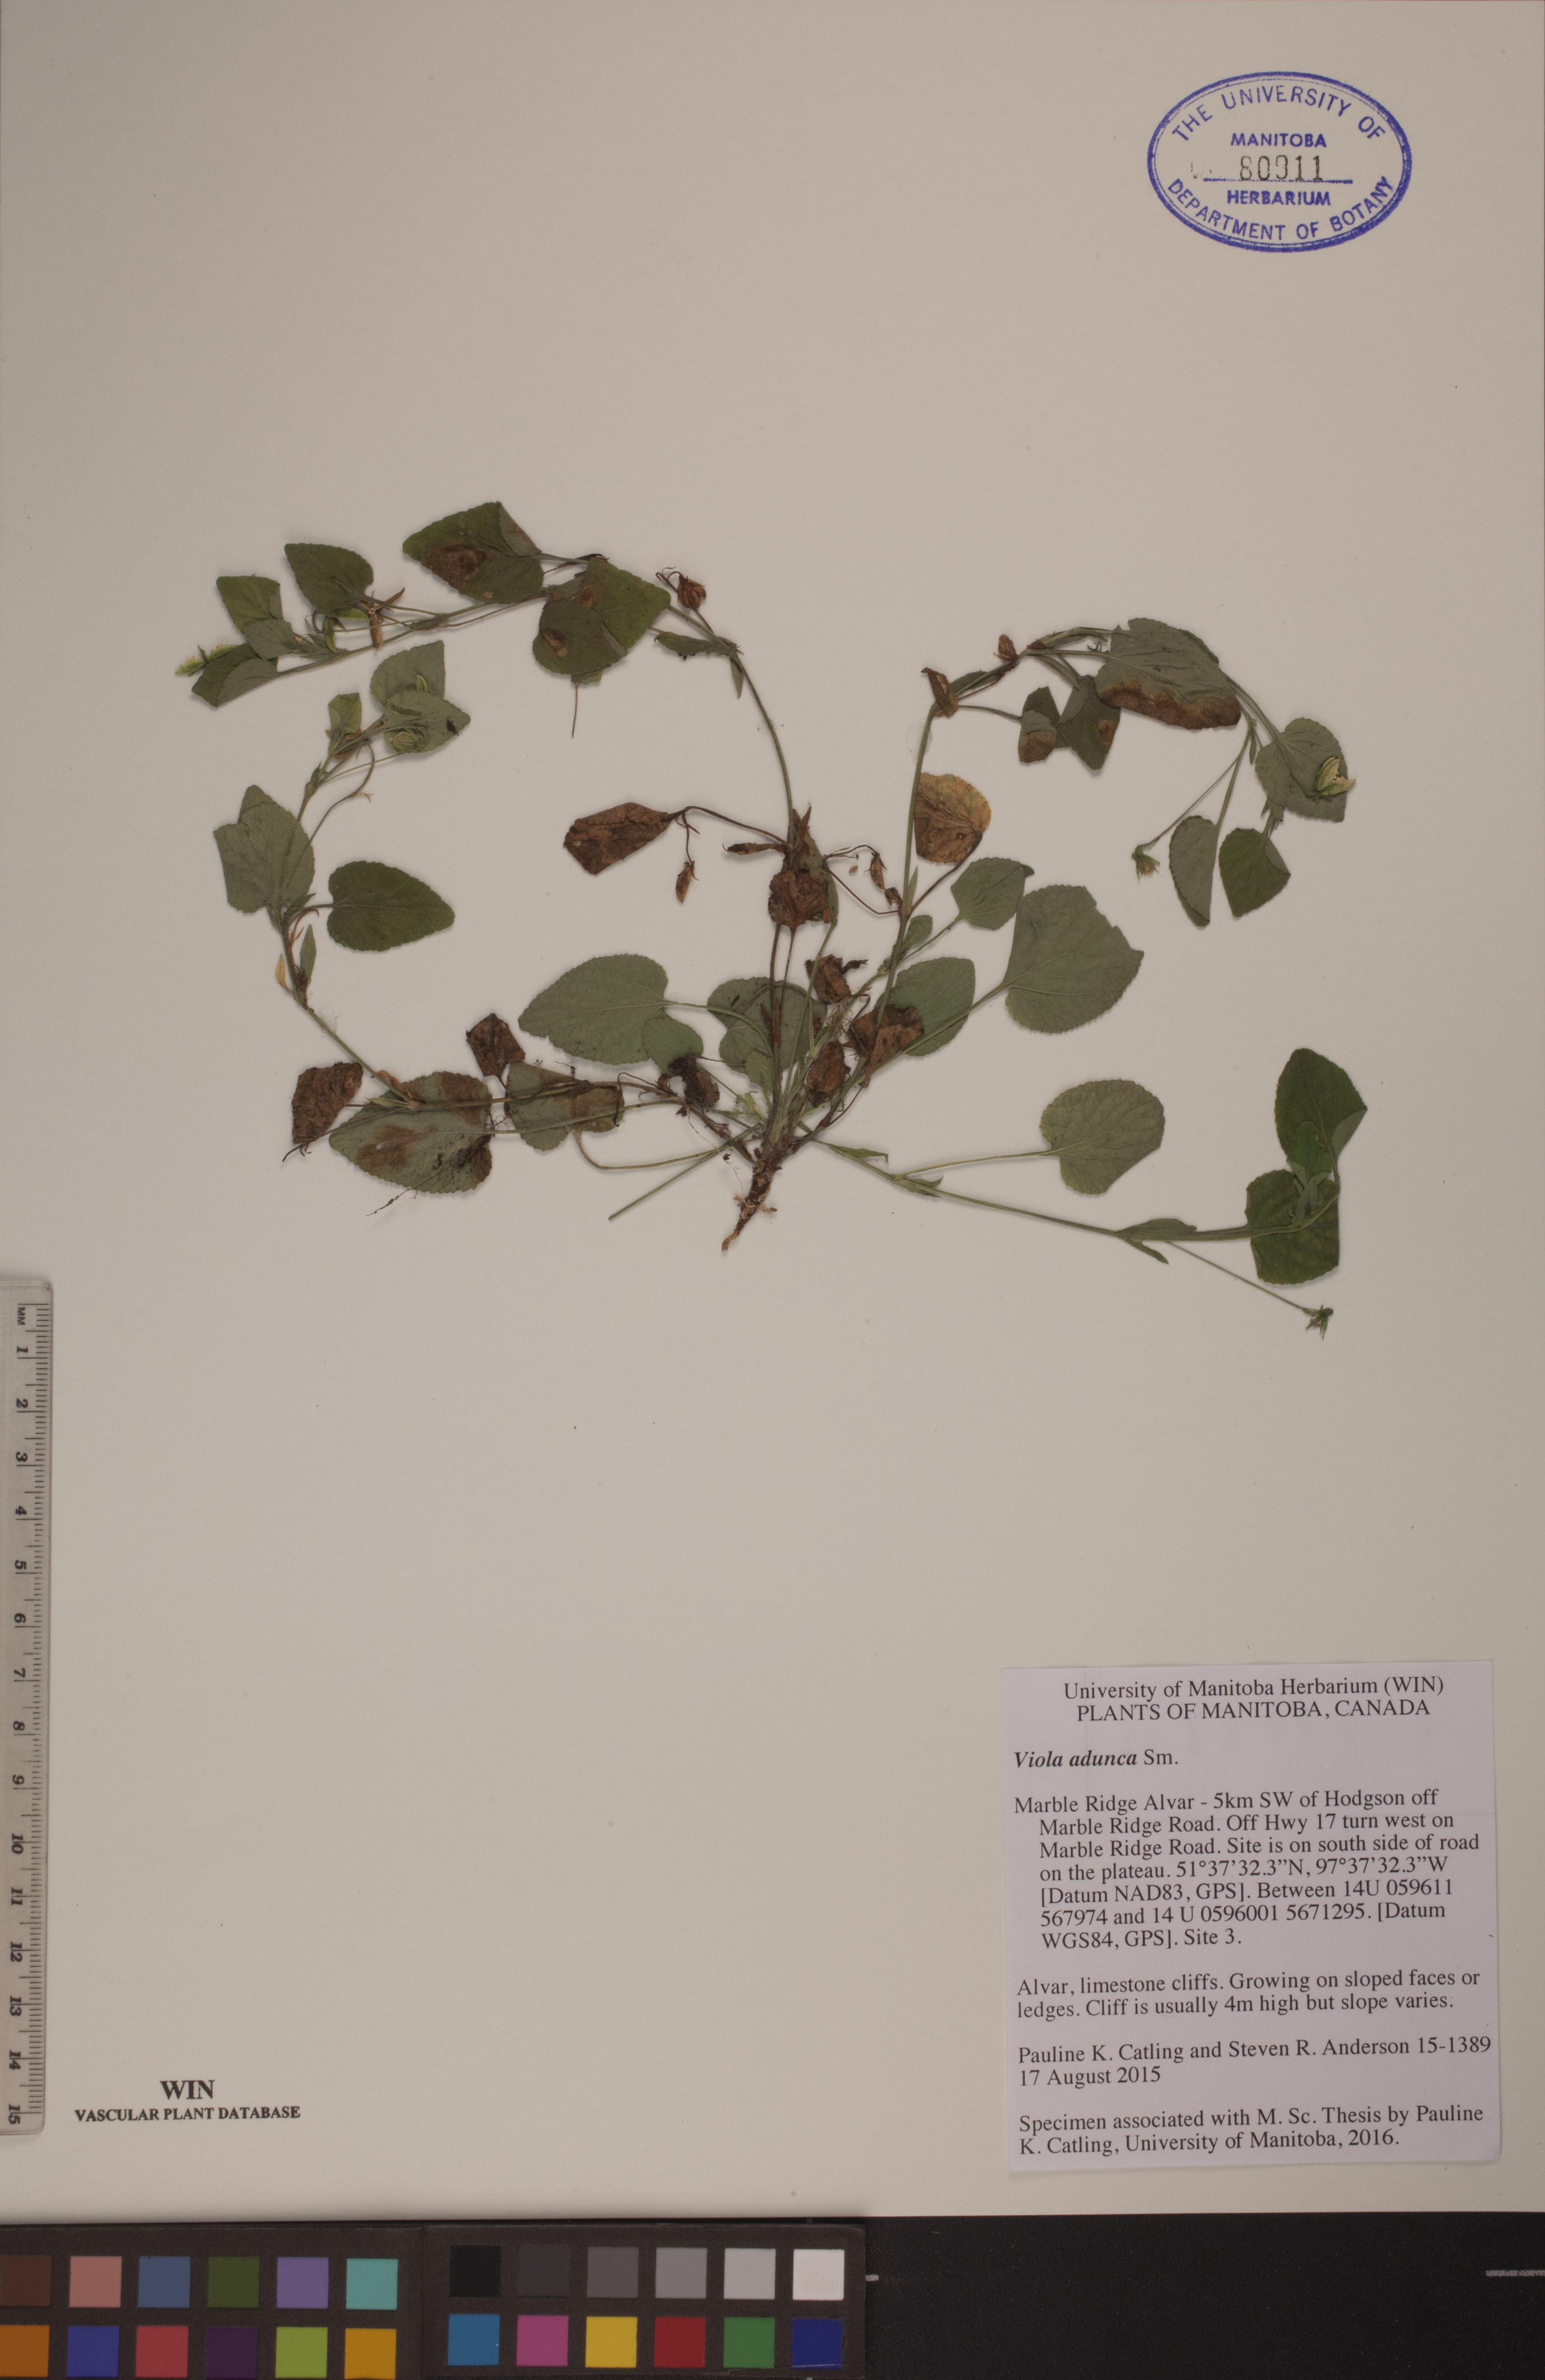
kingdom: Plantae
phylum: Tracheophyta
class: Magnoliopsida
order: Malpighiales
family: Violaceae
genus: Viola
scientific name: Viola adunca
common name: Sand violet
